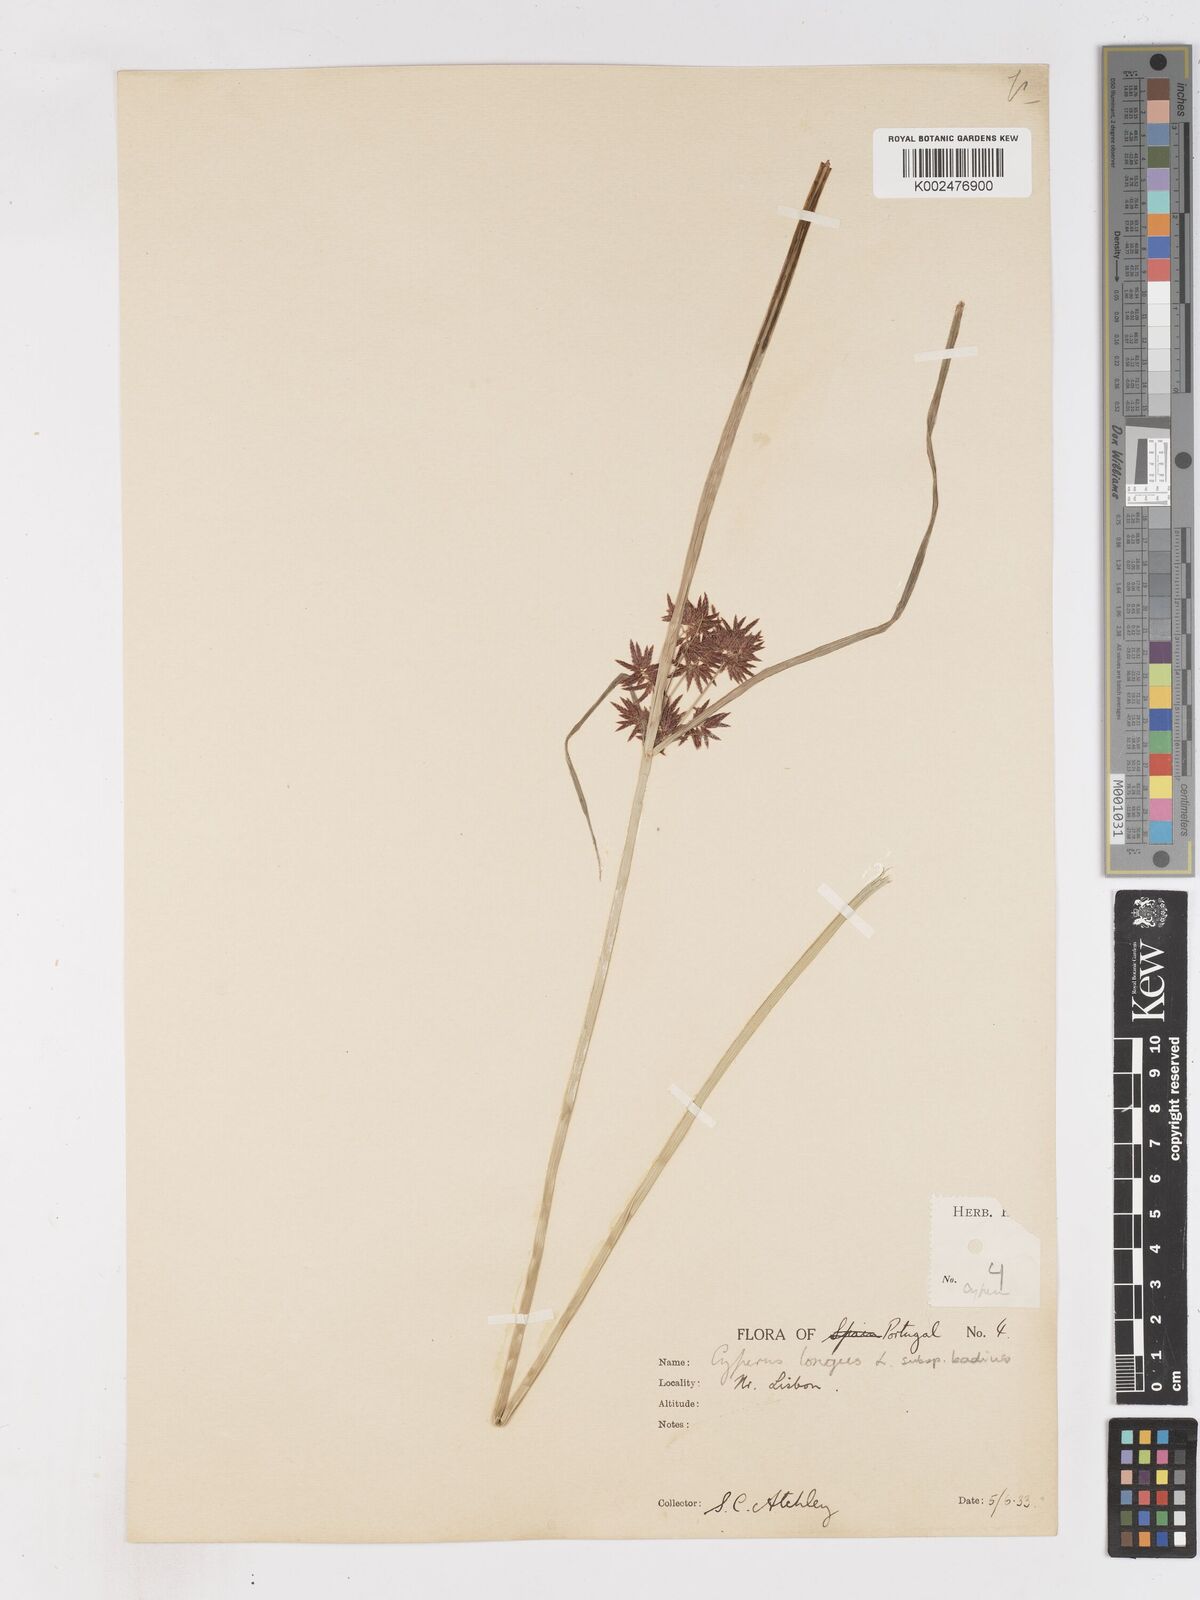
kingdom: Plantae
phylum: Tracheophyta
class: Liliopsida
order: Poales
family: Cyperaceae
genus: Cyperus
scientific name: Cyperus longus
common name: Galingale
